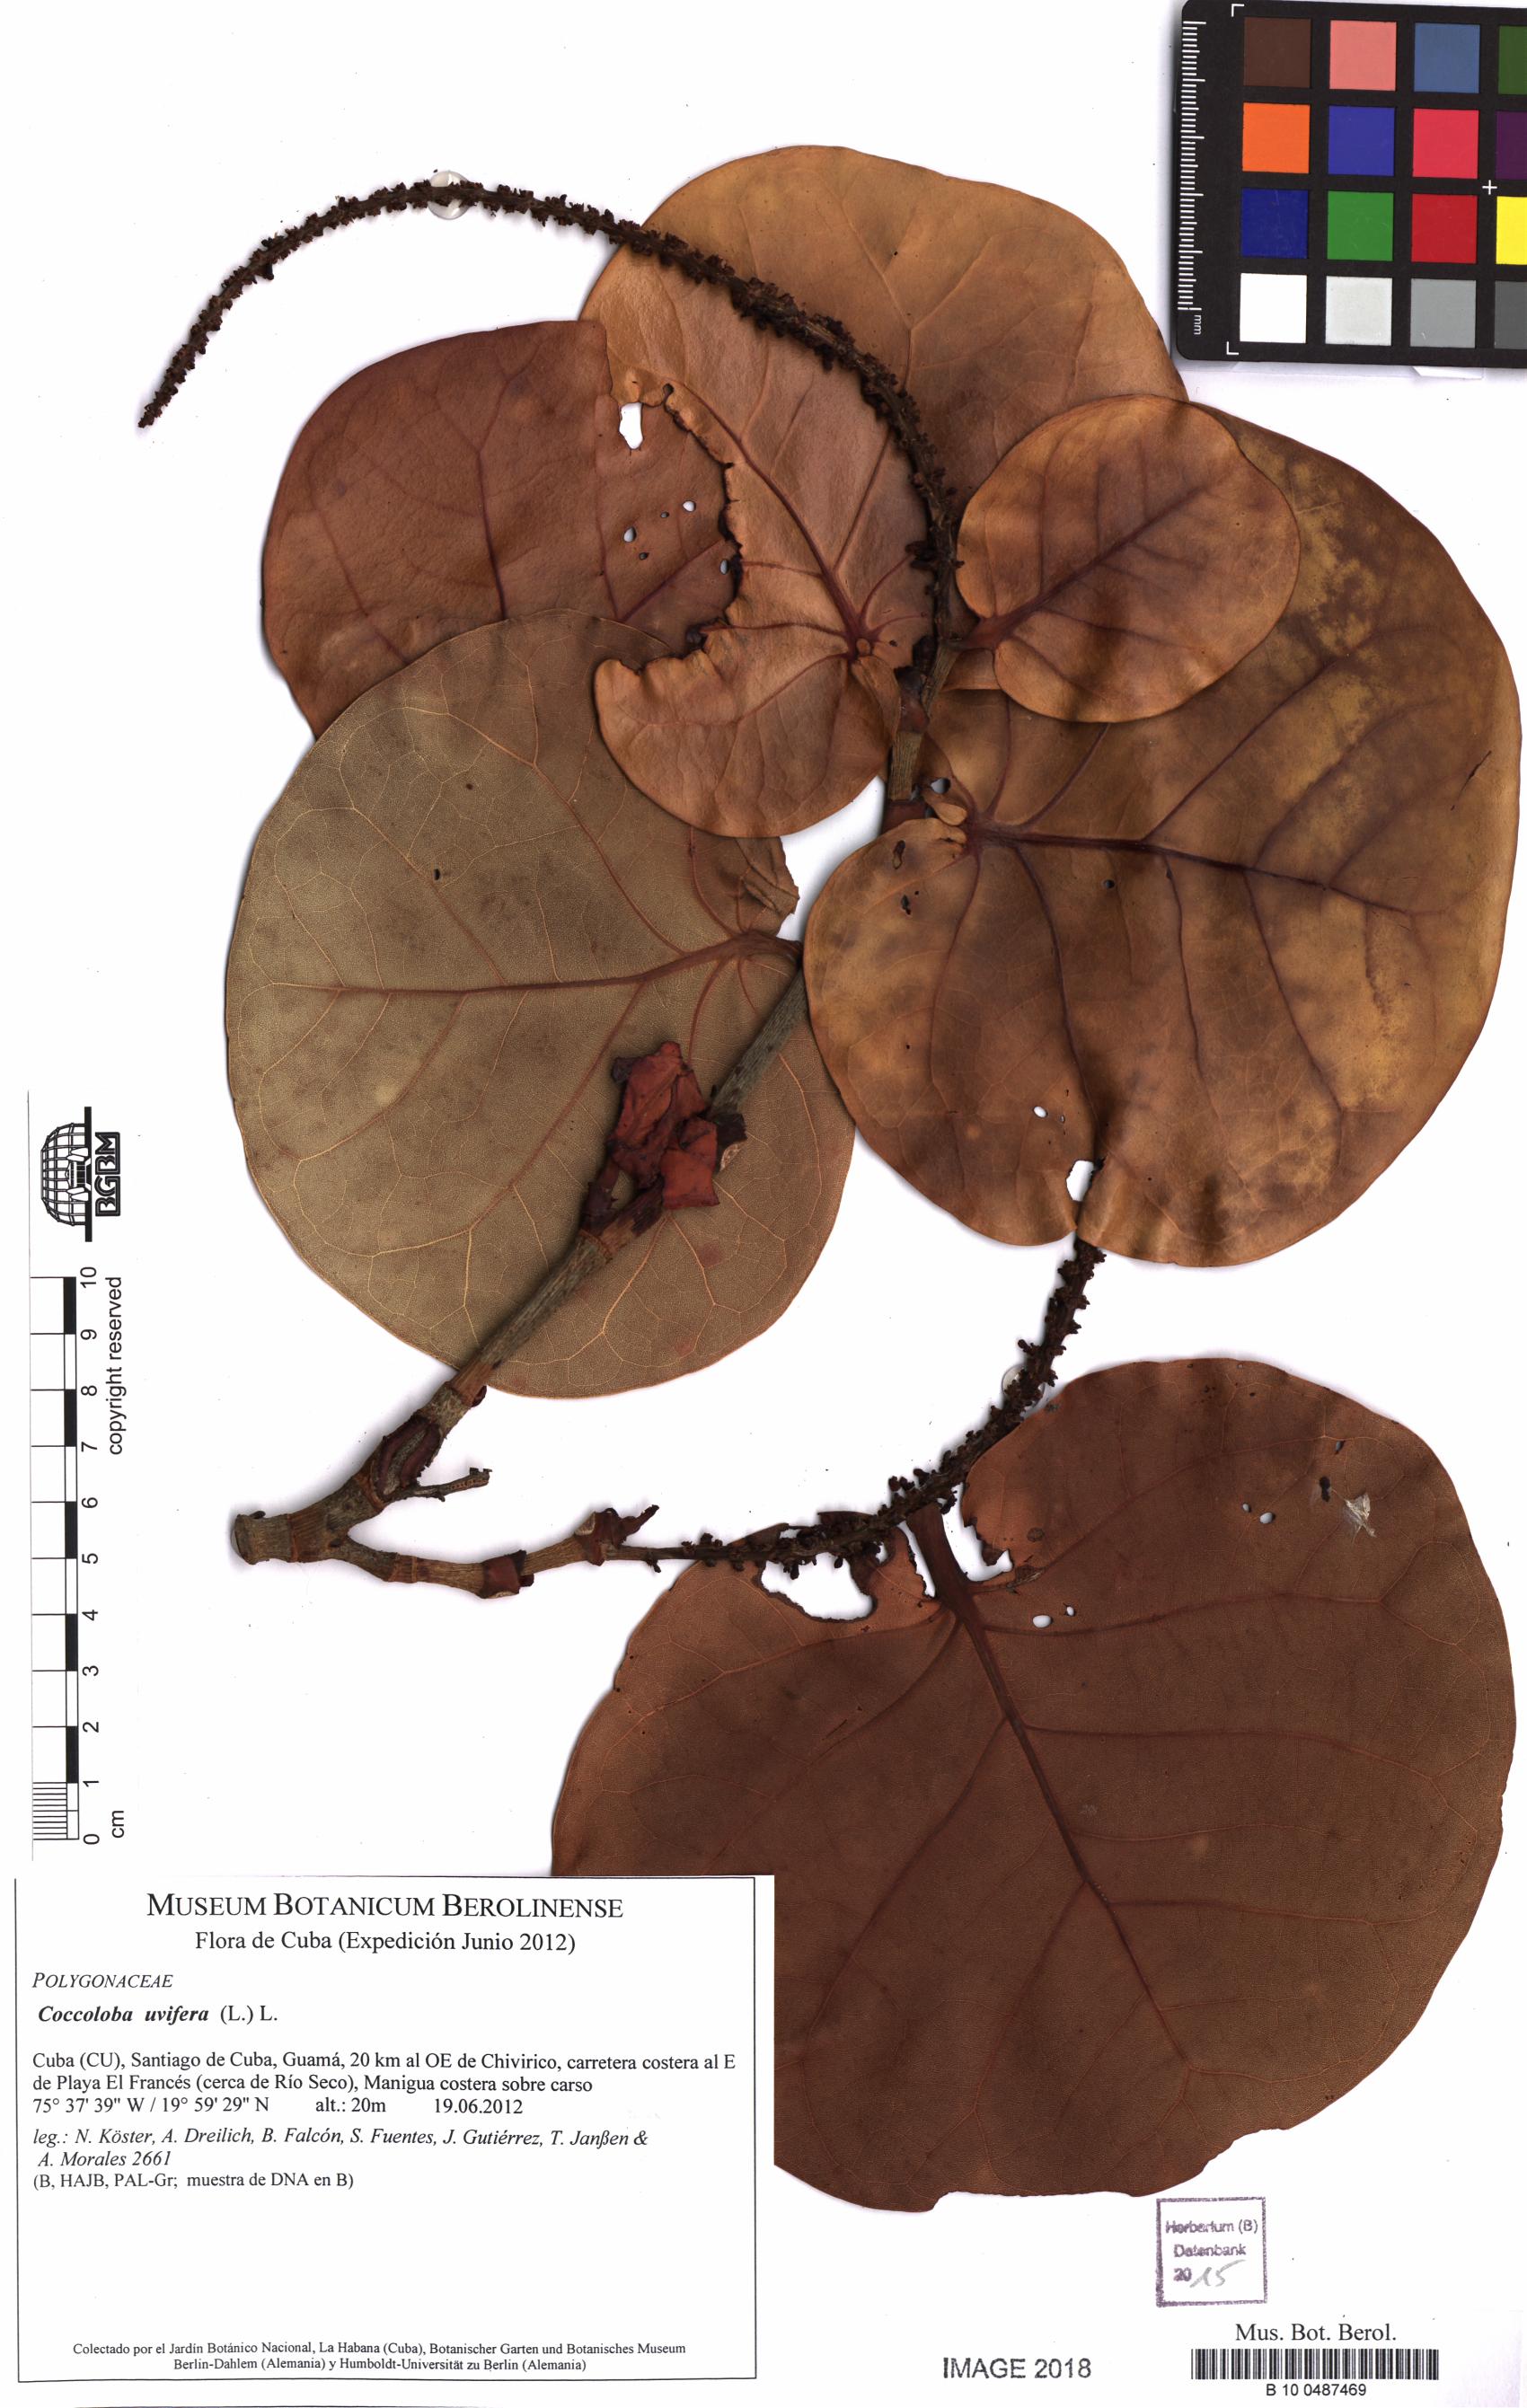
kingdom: Plantae
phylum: Tracheophyta
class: Magnoliopsida
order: Caryophyllales
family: Polygonaceae
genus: Coccoloba
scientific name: Coccoloba uvifera
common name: Seagrape
